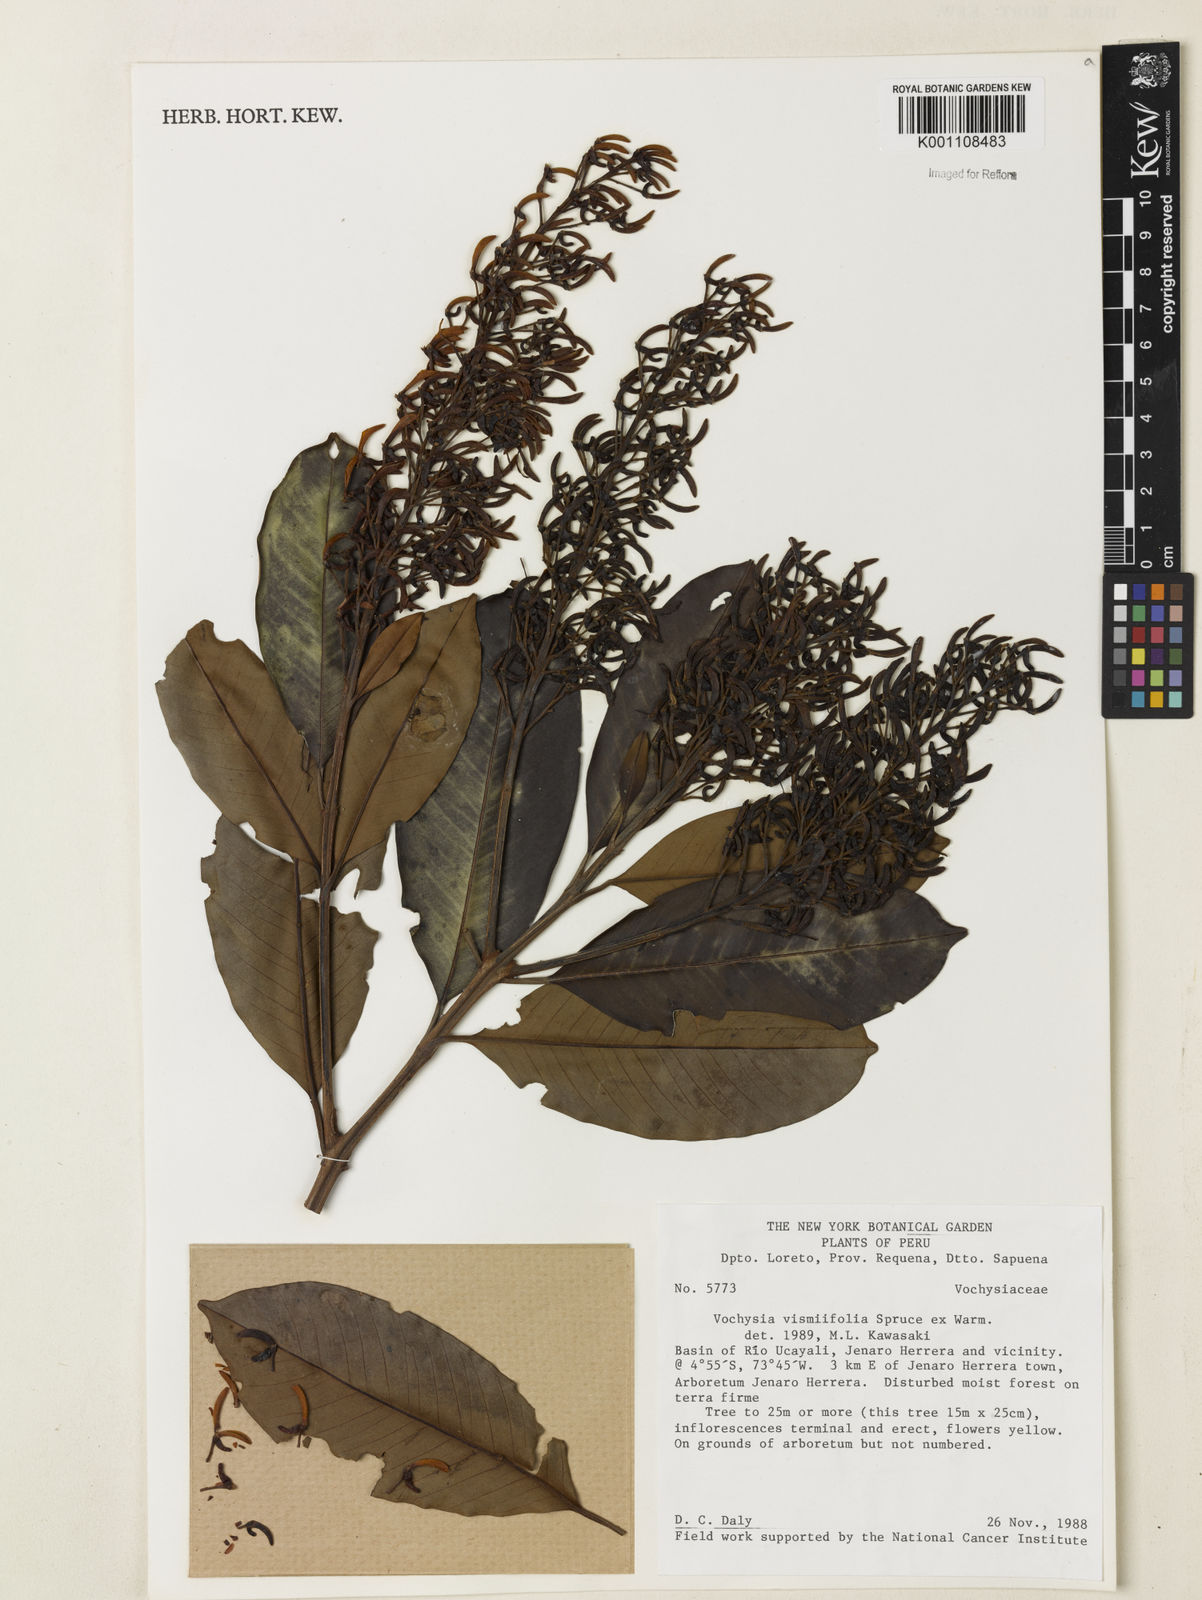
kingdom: Plantae
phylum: Tracheophyta
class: Magnoliopsida
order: Myrtales
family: Vochysiaceae
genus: Vochysia
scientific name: Vochysia vismiifolia
